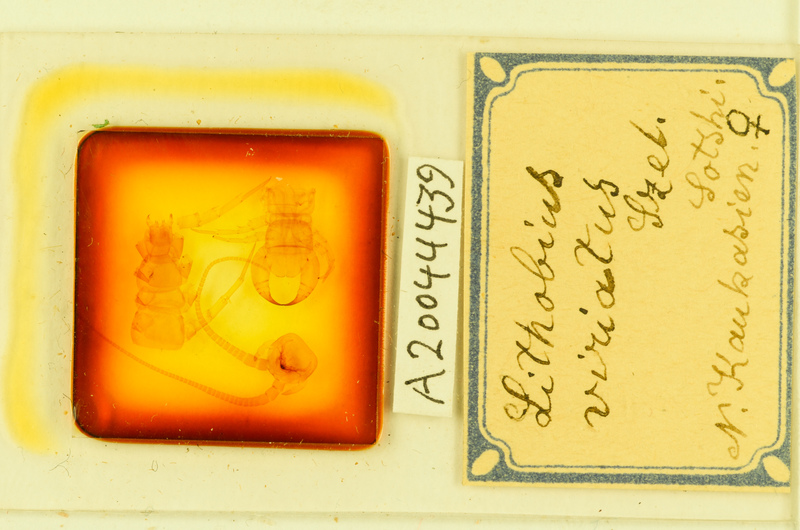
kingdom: Animalia
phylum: Arthropoda
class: Chilopoda
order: Lithobiomorpha
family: Lithobiidae
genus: Lithobius
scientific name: Lithobius viriatus
